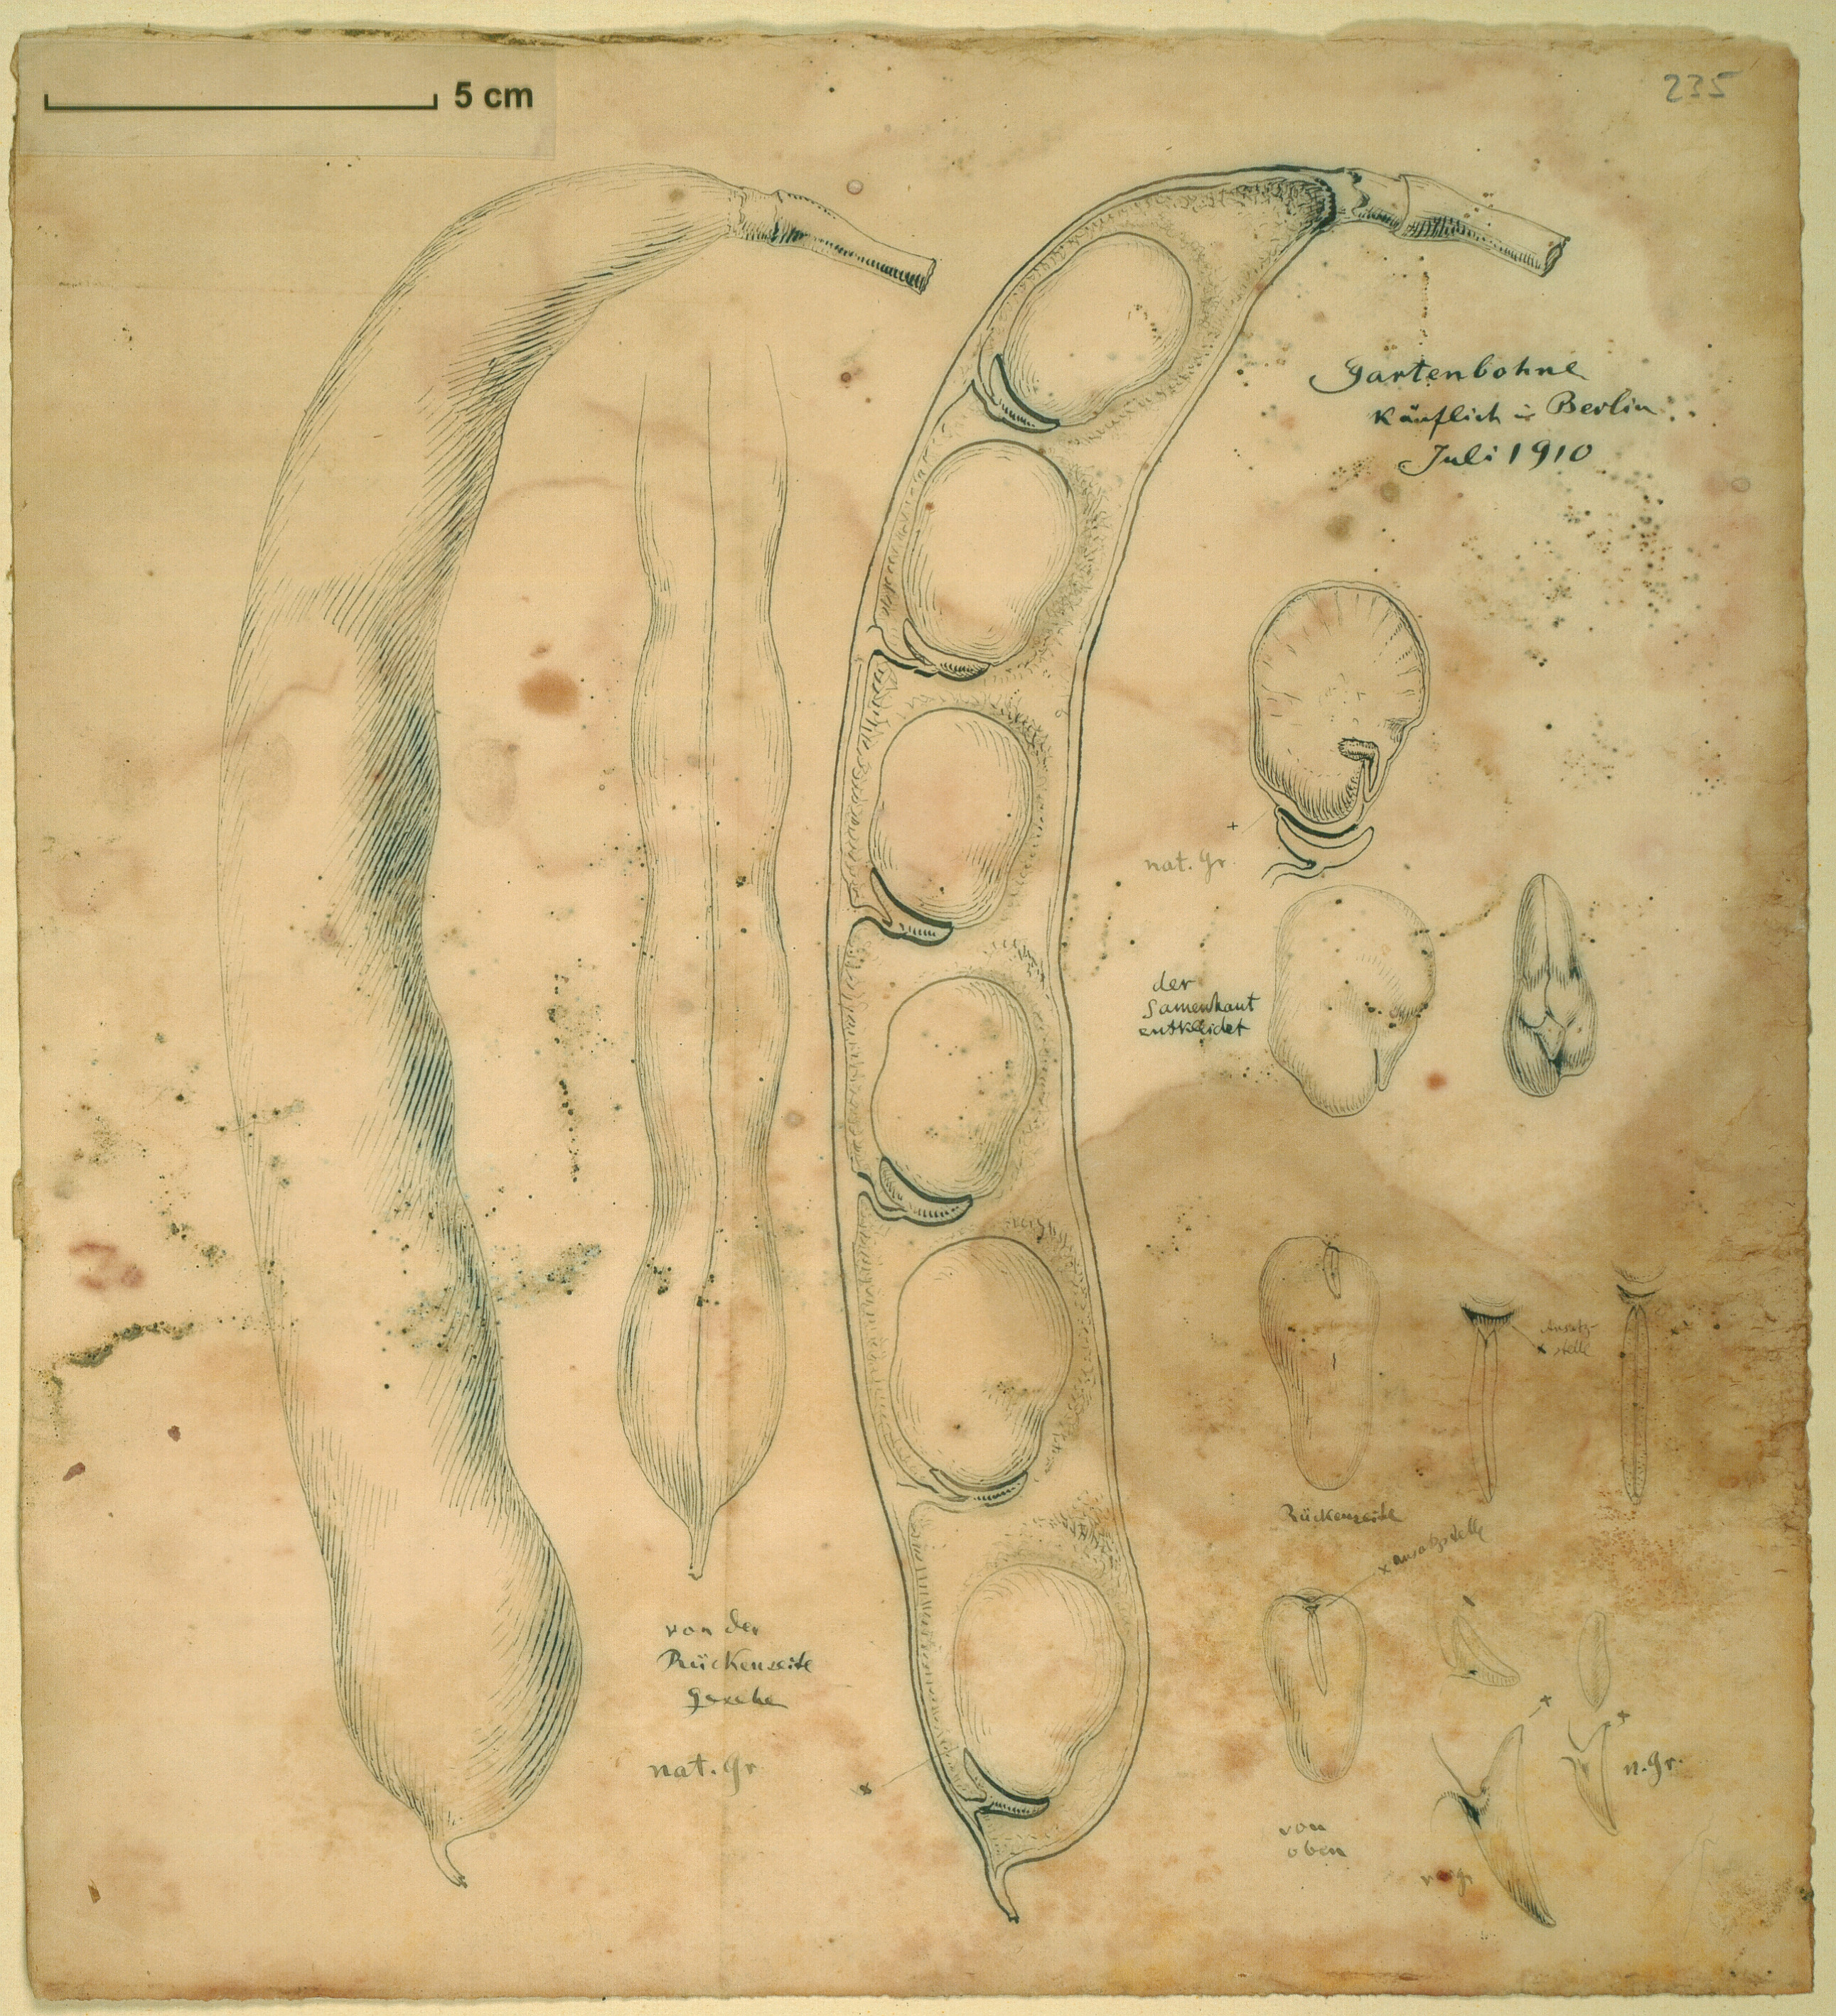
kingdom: Plantae
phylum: Tracheophyta
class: Magnoliopsida
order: Fabales
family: Fabaceae
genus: Phaseolus
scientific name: Phaseolus vulgaris
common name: Bean
